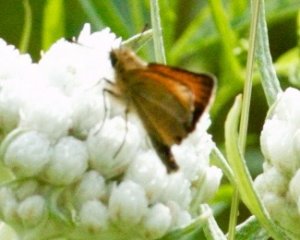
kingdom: Animalia
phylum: Arthropoda
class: Insecta
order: Lepidoptera
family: Hesperiidae
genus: Ancyloxypha
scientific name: Ancyloxypha numitor
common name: Least Skipper
